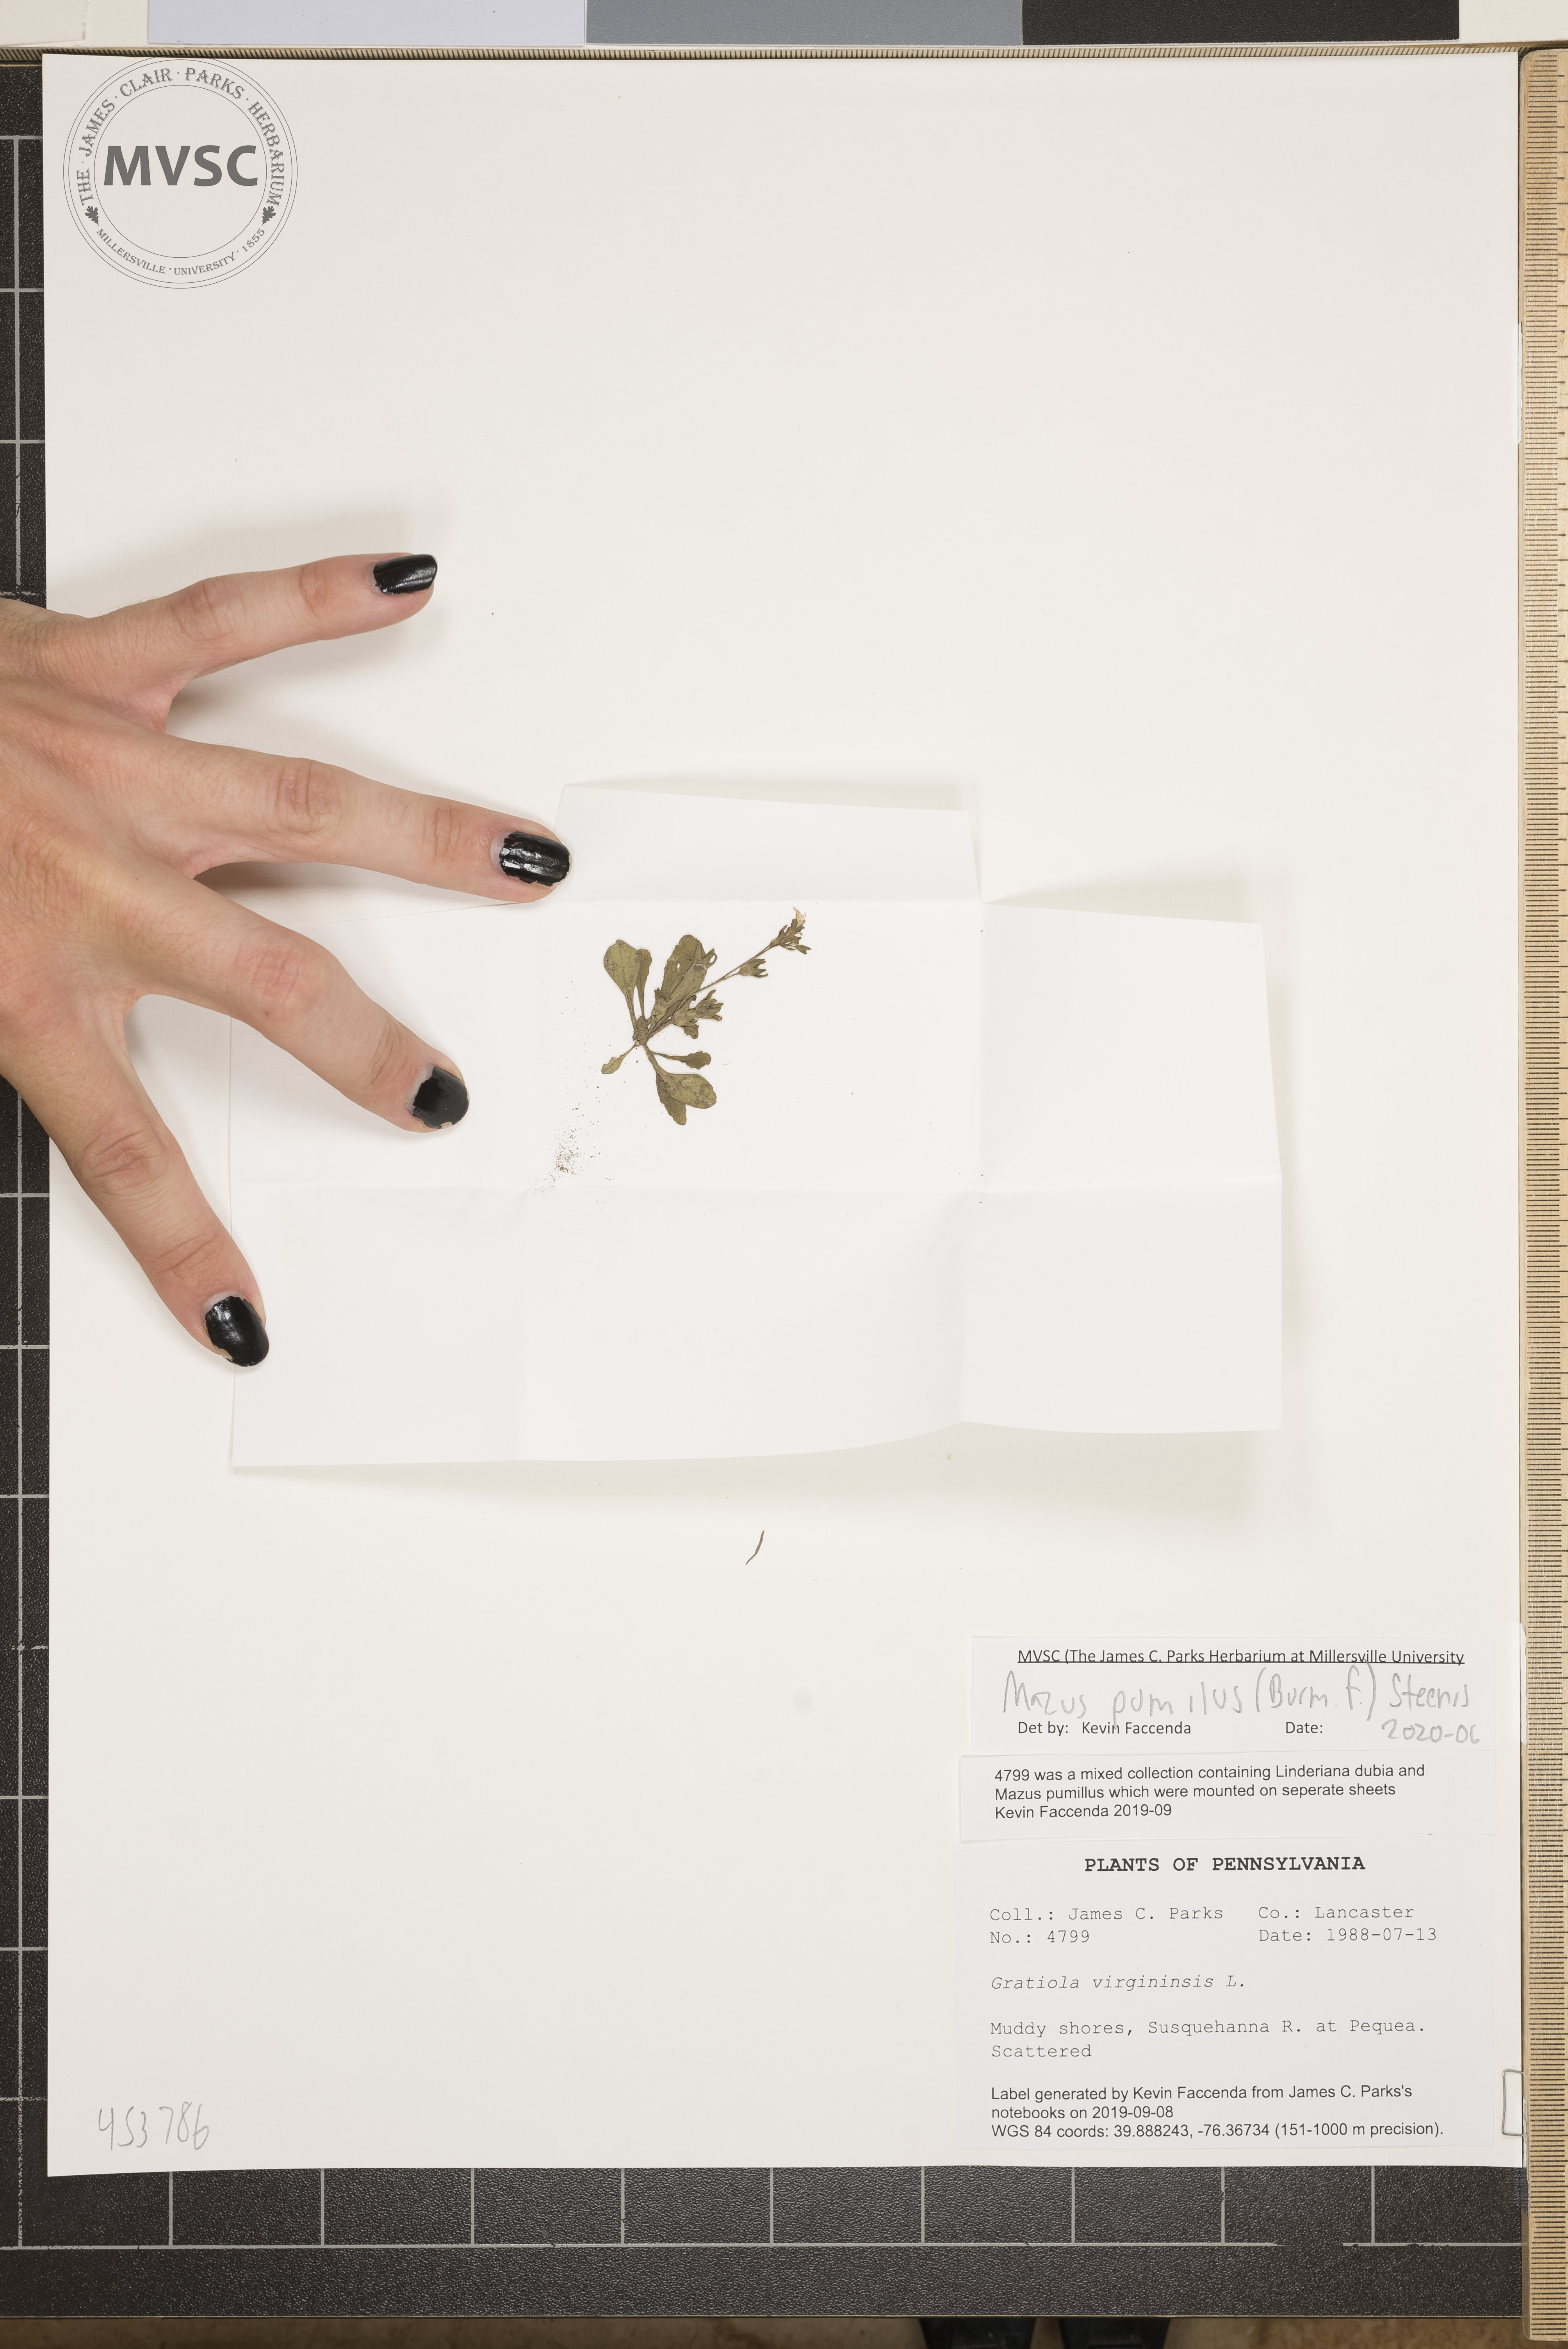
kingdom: Plantae
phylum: Tracheophyta
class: Magnoliopsida
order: Lamiales
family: Mazaceae
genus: Mazus
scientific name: Mazus pumilus
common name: Japanese mazus
